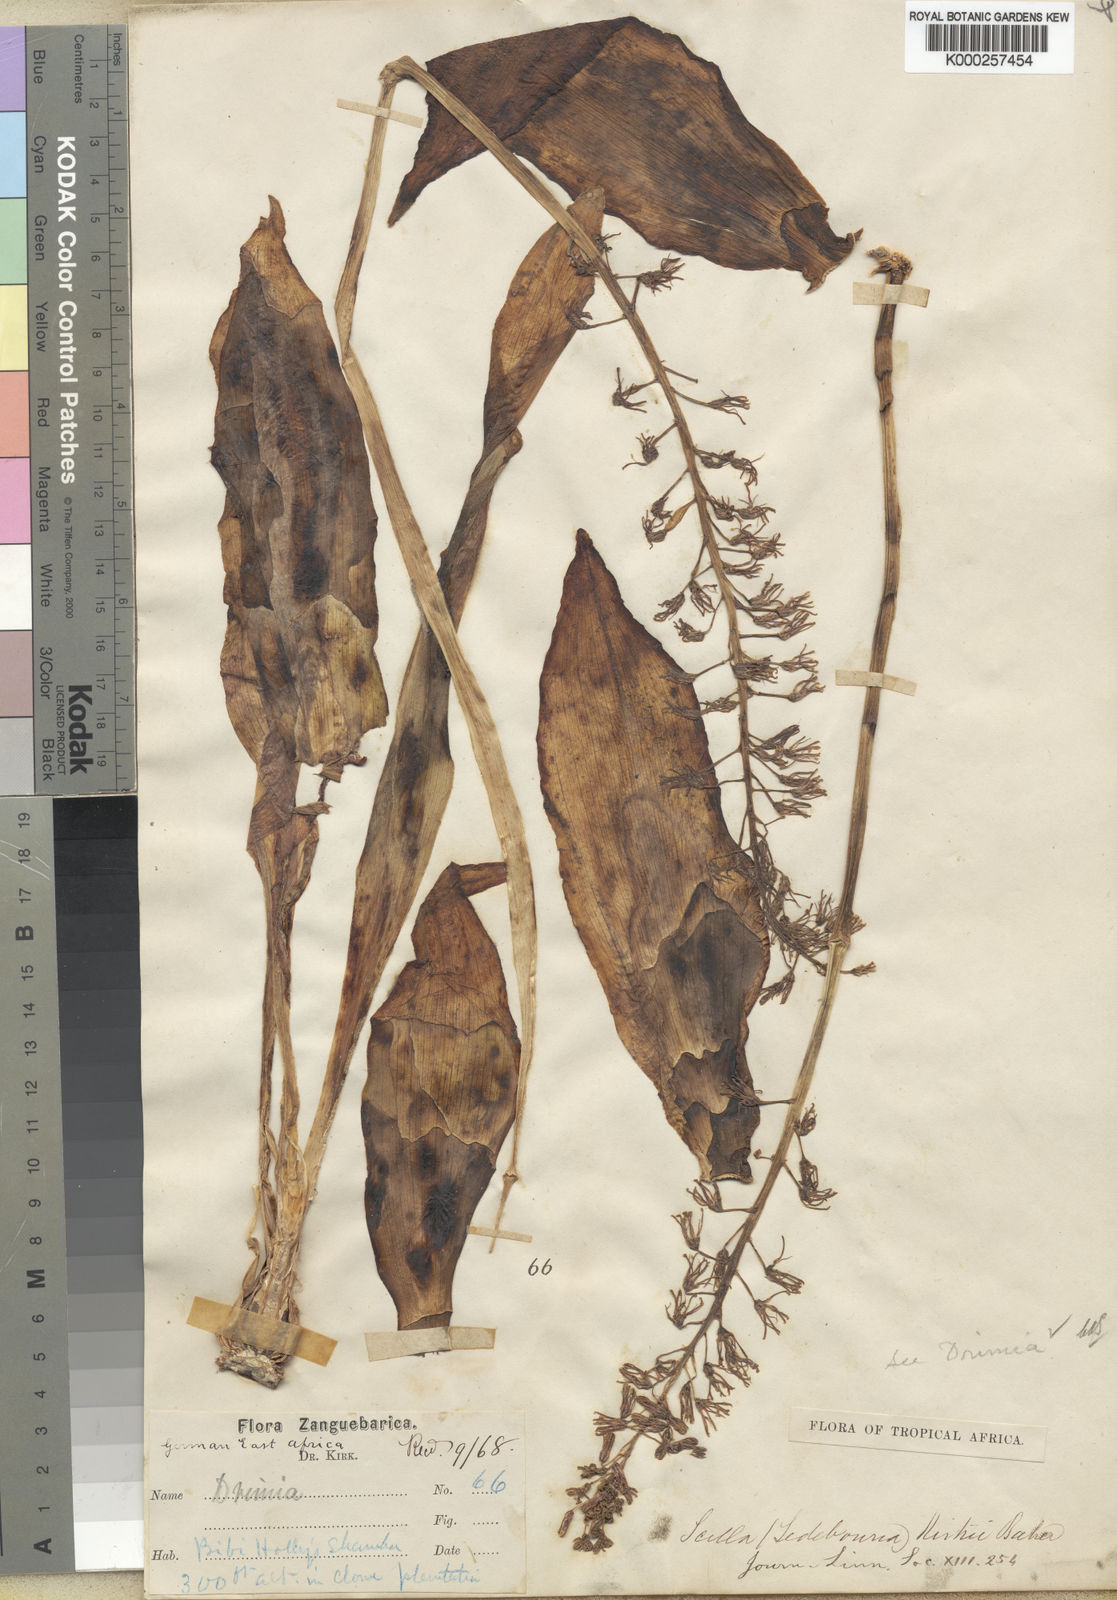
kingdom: Plantae
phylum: Tracheophyta
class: Liliopsida
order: Asparagales
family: Asparagaceae
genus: Ledebouria
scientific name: Ledebouria kirkii
